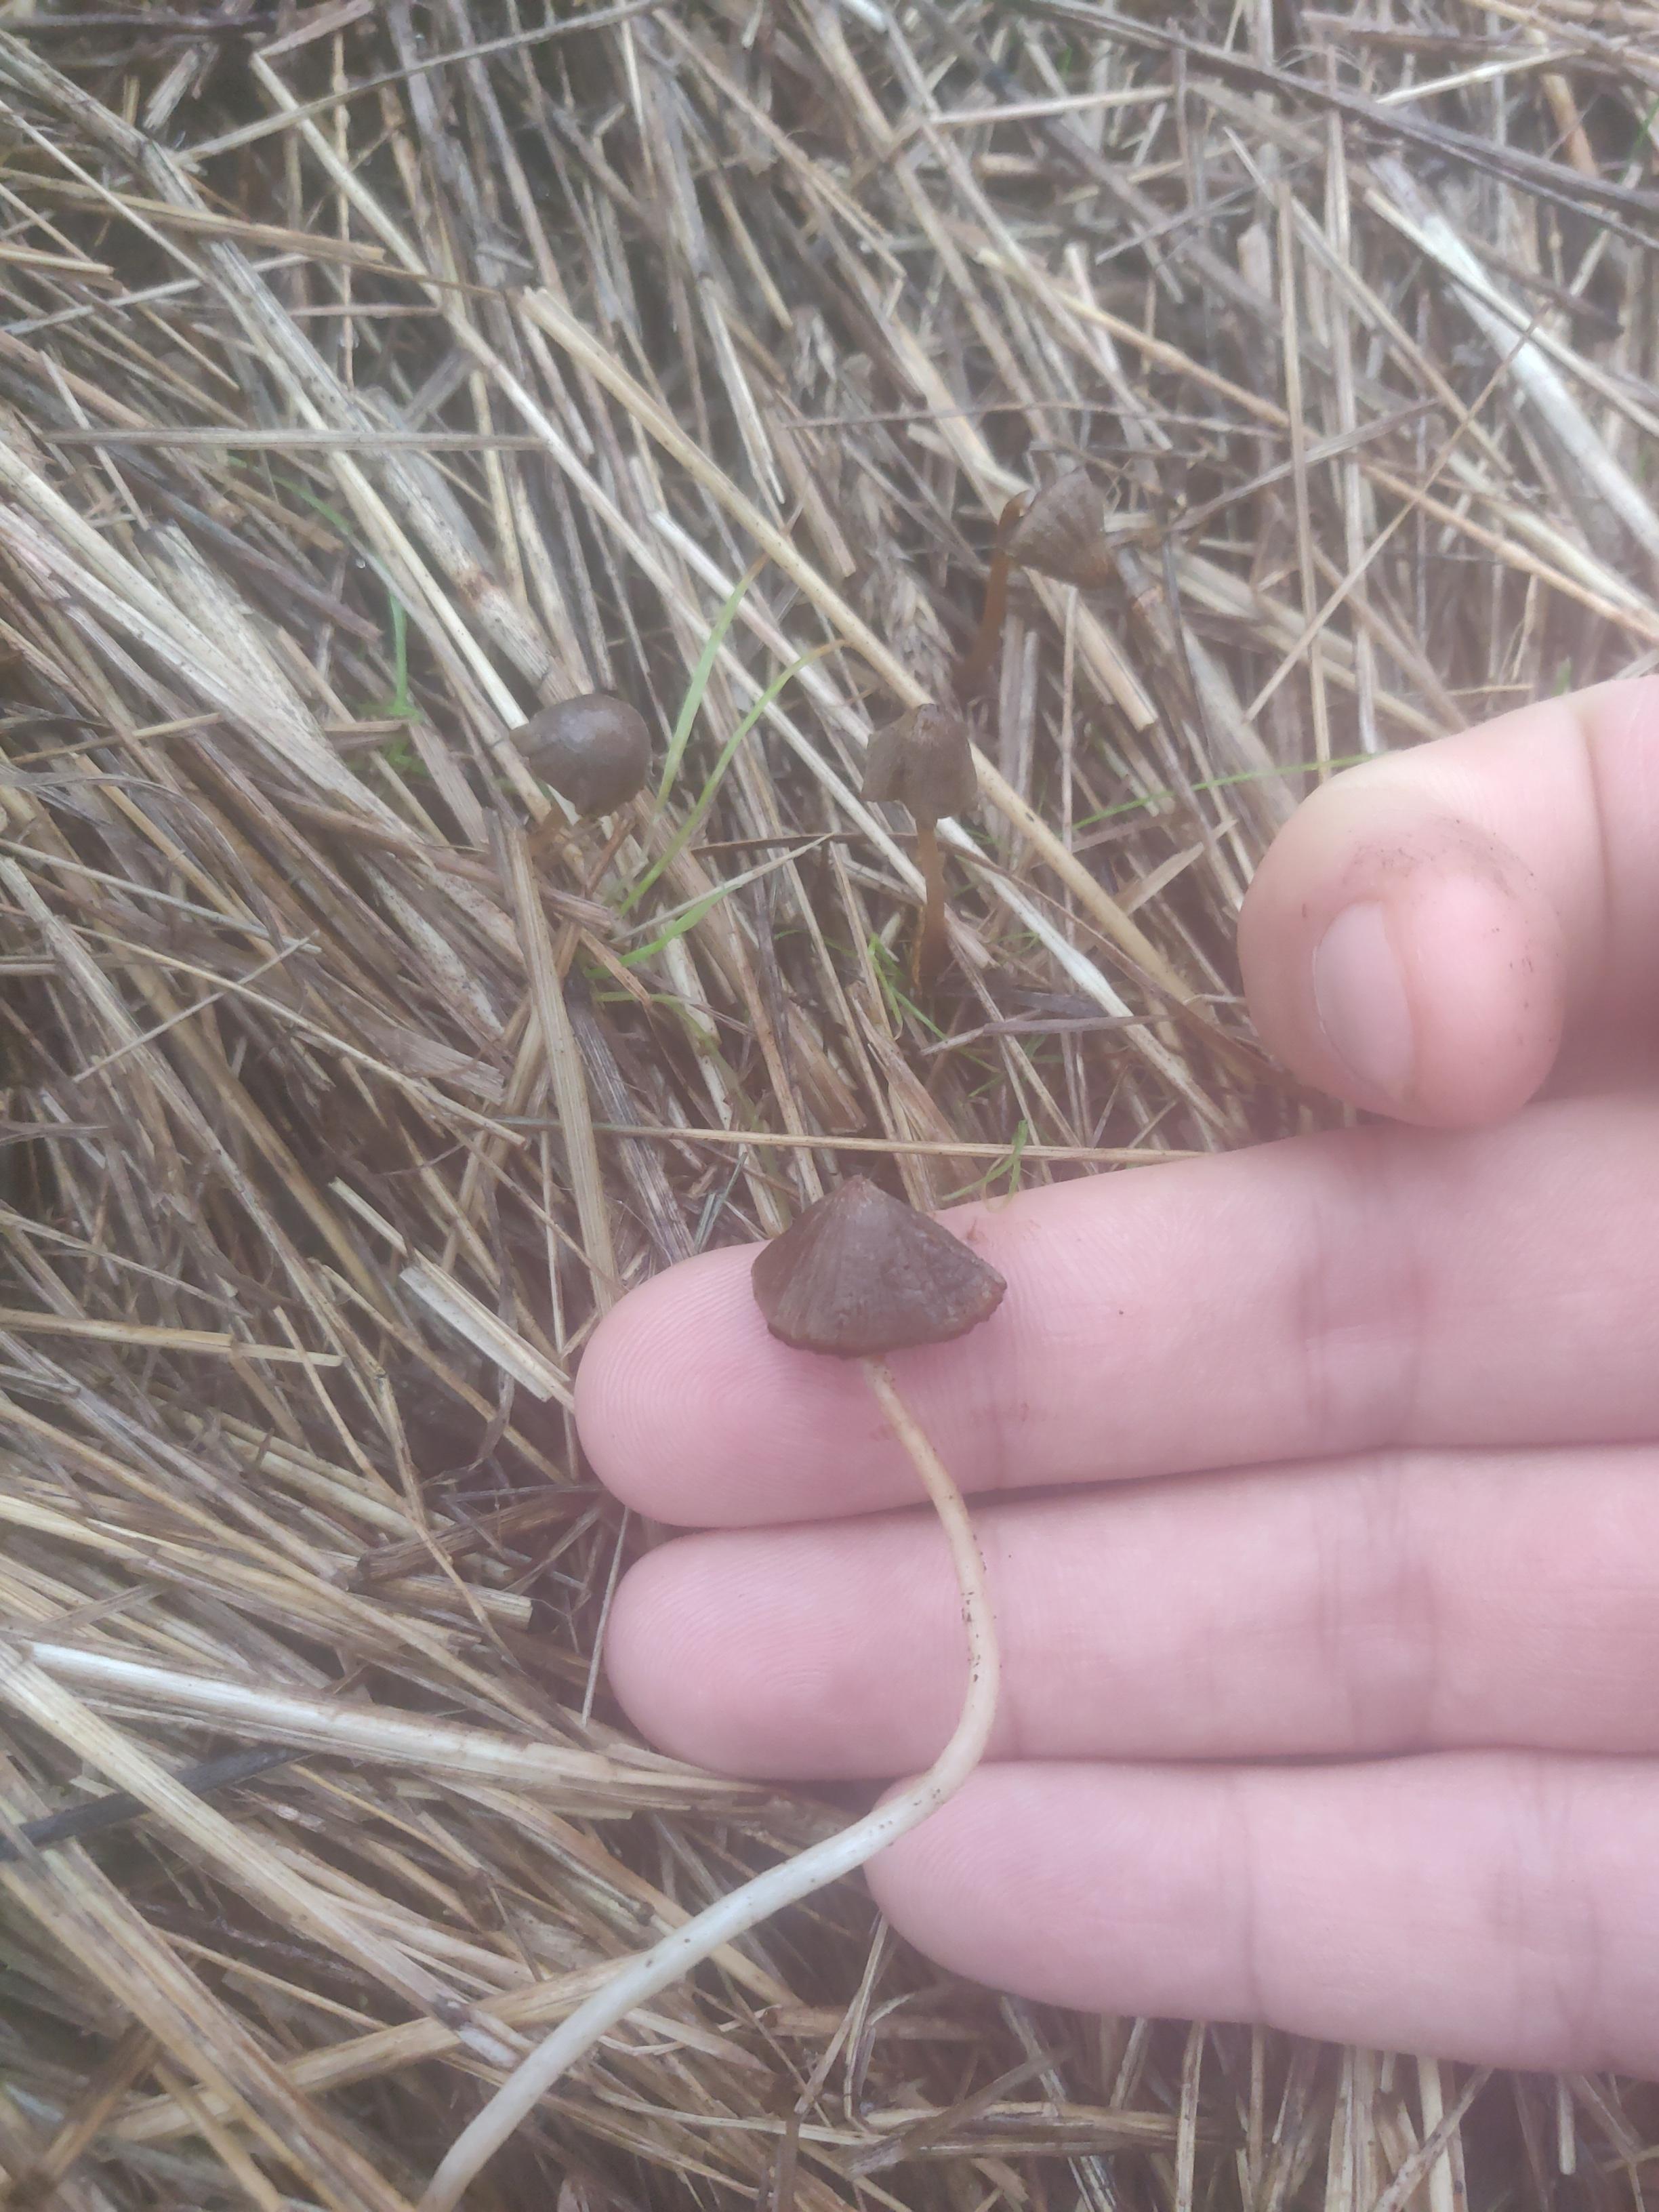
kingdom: Fungi
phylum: Basidiomycota
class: Agaricomycetes
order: Agaricales
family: Strophariaceae
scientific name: Strophariaceae
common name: bredbladfamilien
